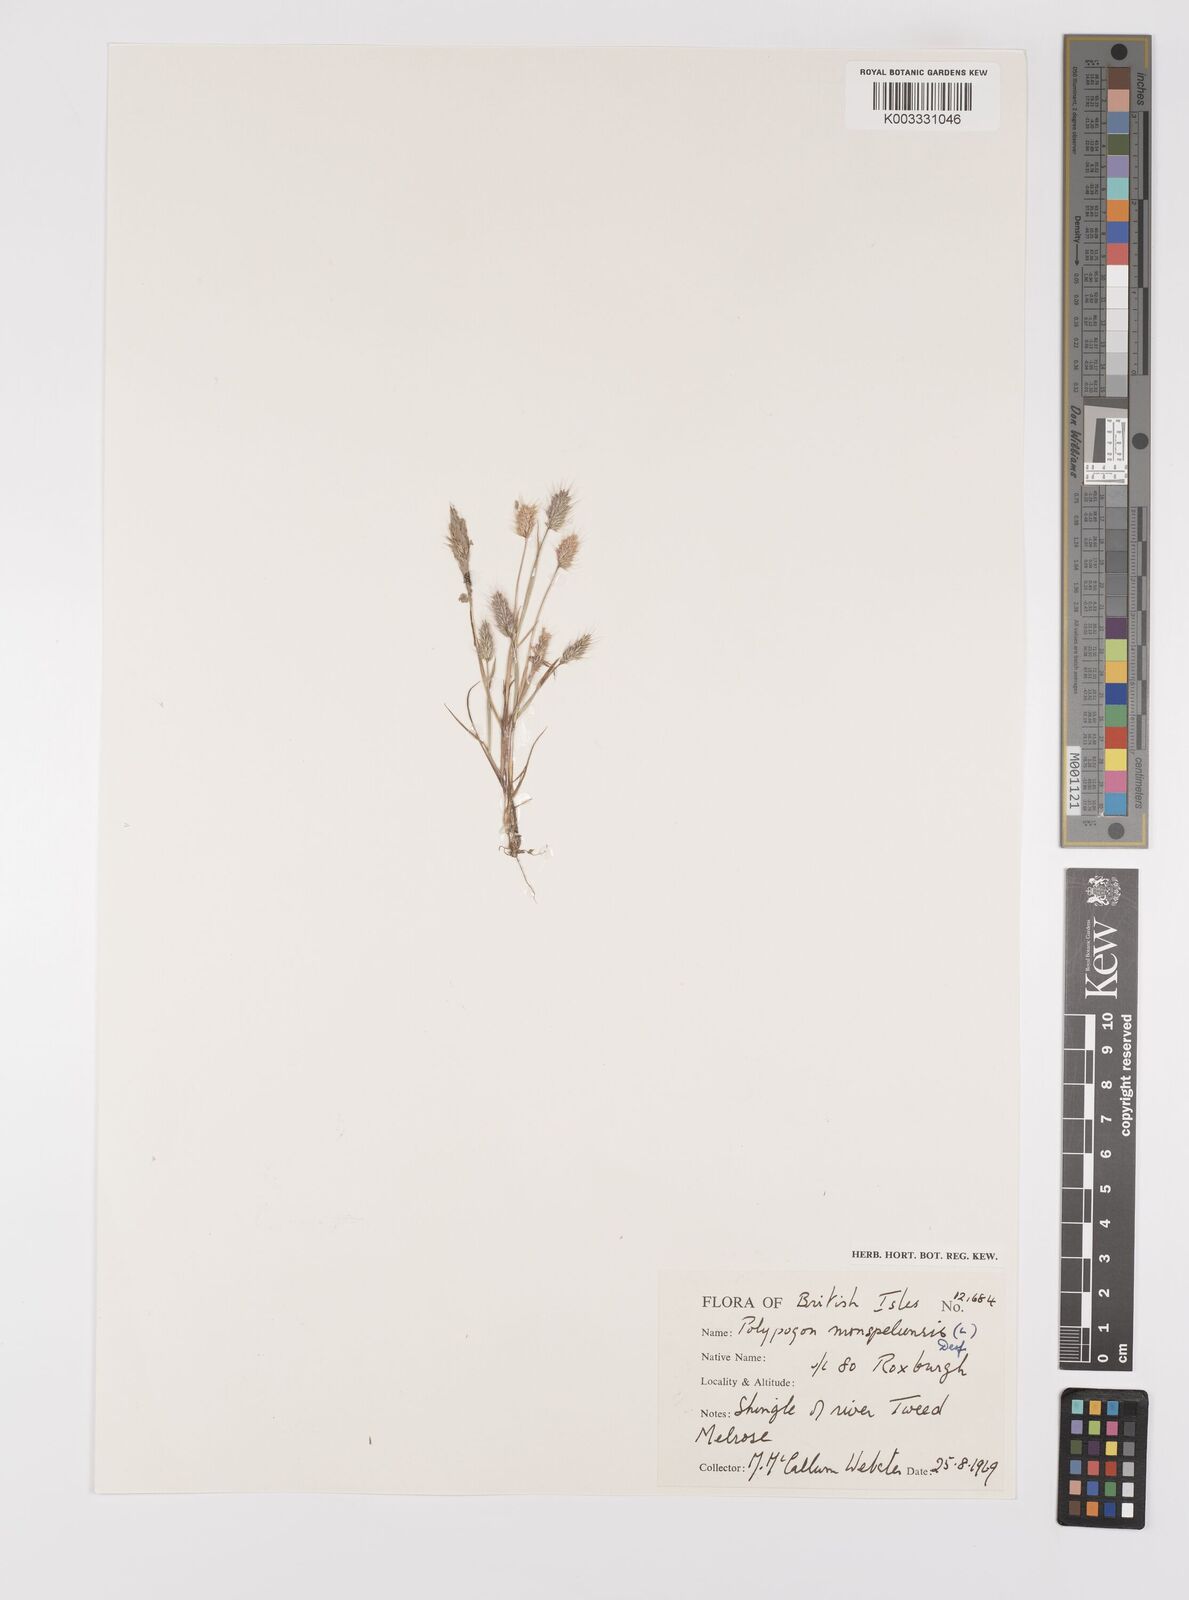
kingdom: Plantae
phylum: Tracheophyta
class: Liliopsida
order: Poales
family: Poaceae
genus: Polypogon
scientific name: Polypogon monspeliensis
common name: Annual rabbitsfoot grass
